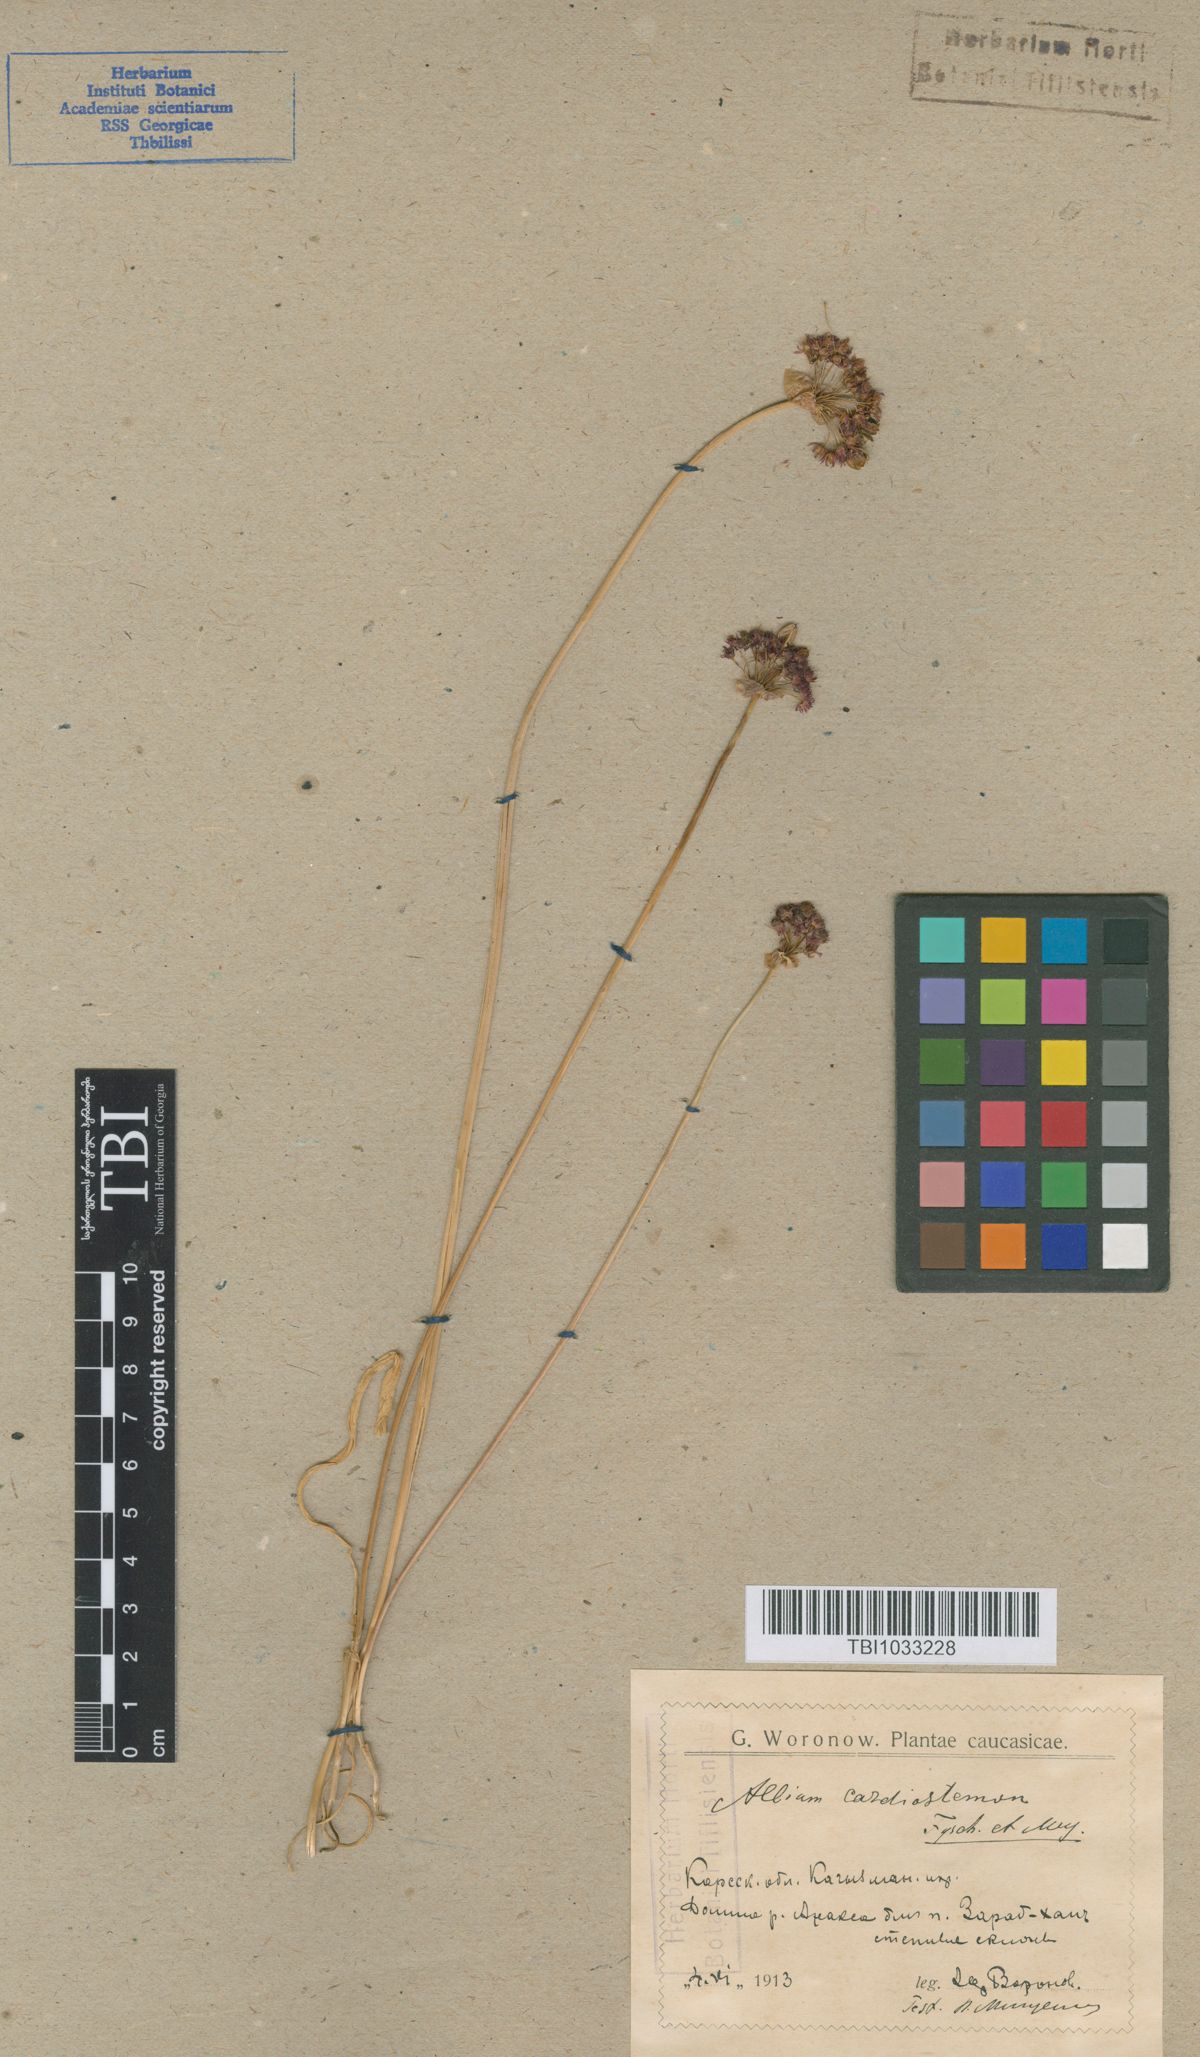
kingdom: Plantae
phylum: Tracheophyta
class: Liliopsida
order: Asparagales
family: Amaryllidaceae
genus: Allium
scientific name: Allium cardiostemon
